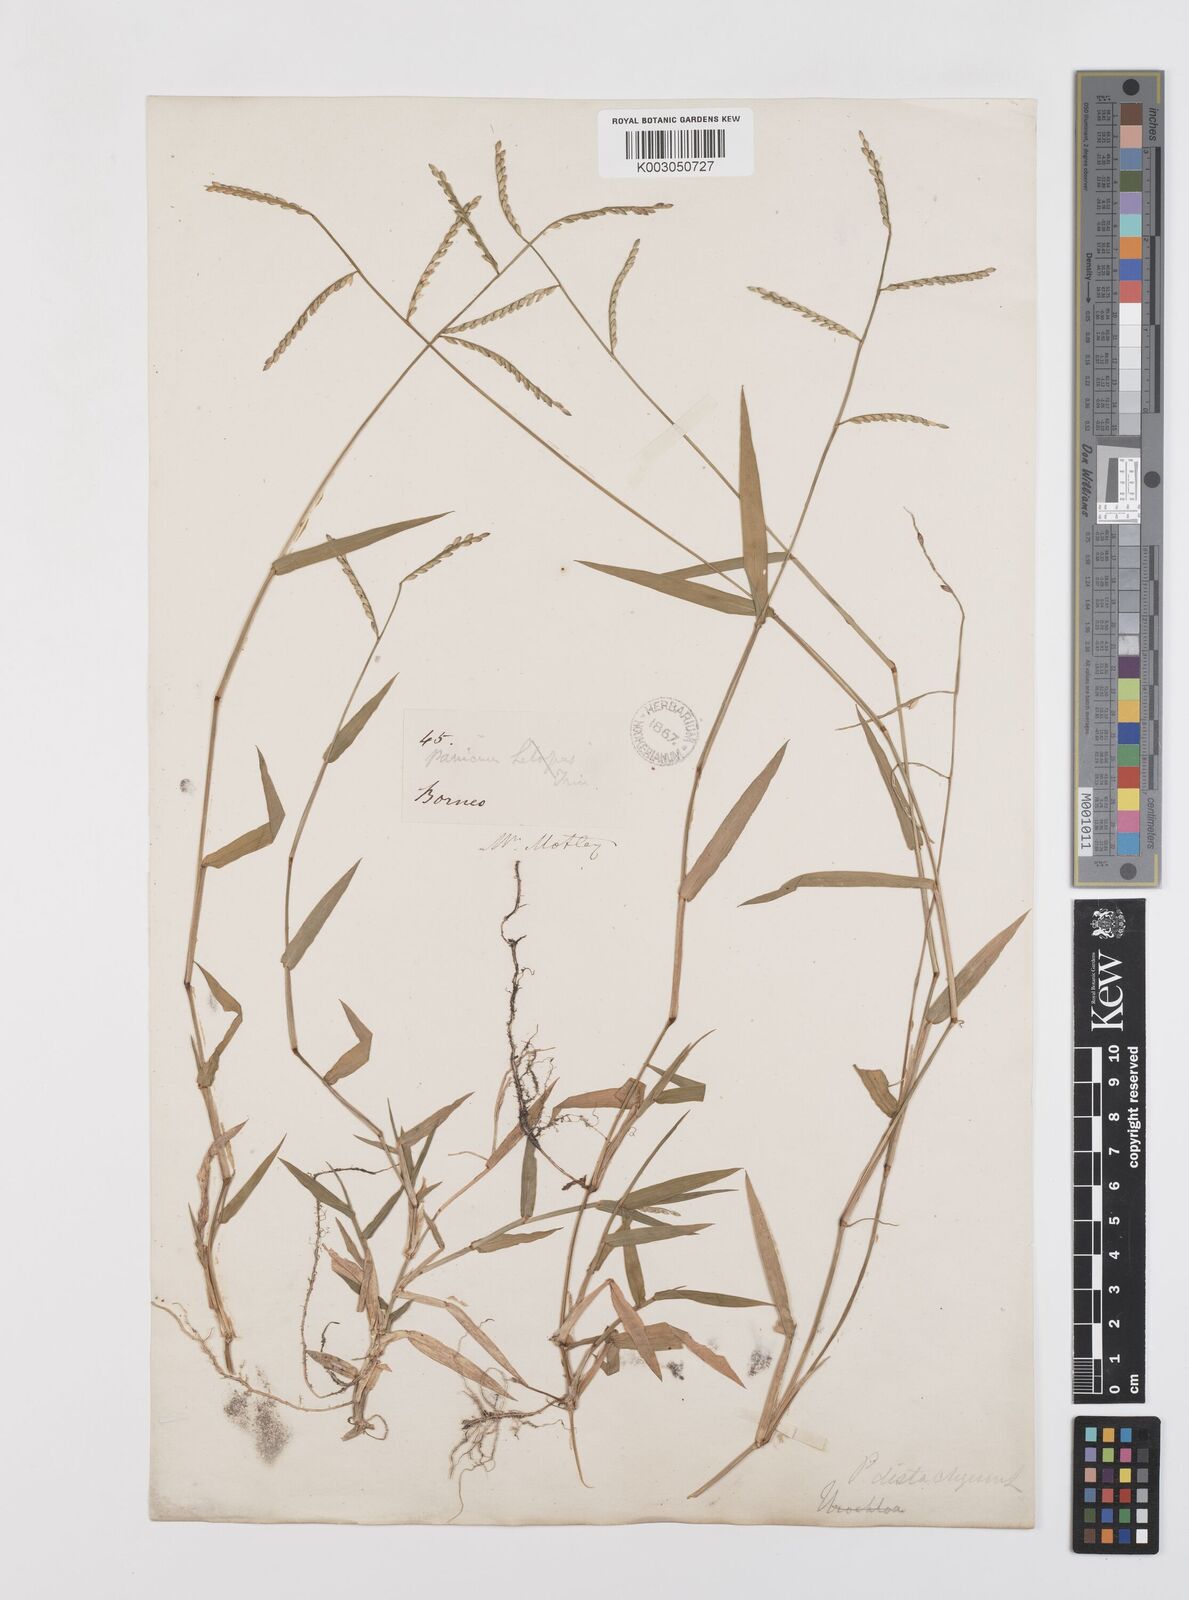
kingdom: Plantae
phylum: Tracheophyta
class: Liliopsida
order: Poales
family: Poaceae
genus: Urochloa
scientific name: Urochloa subquadripara
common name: Armgrass millet
